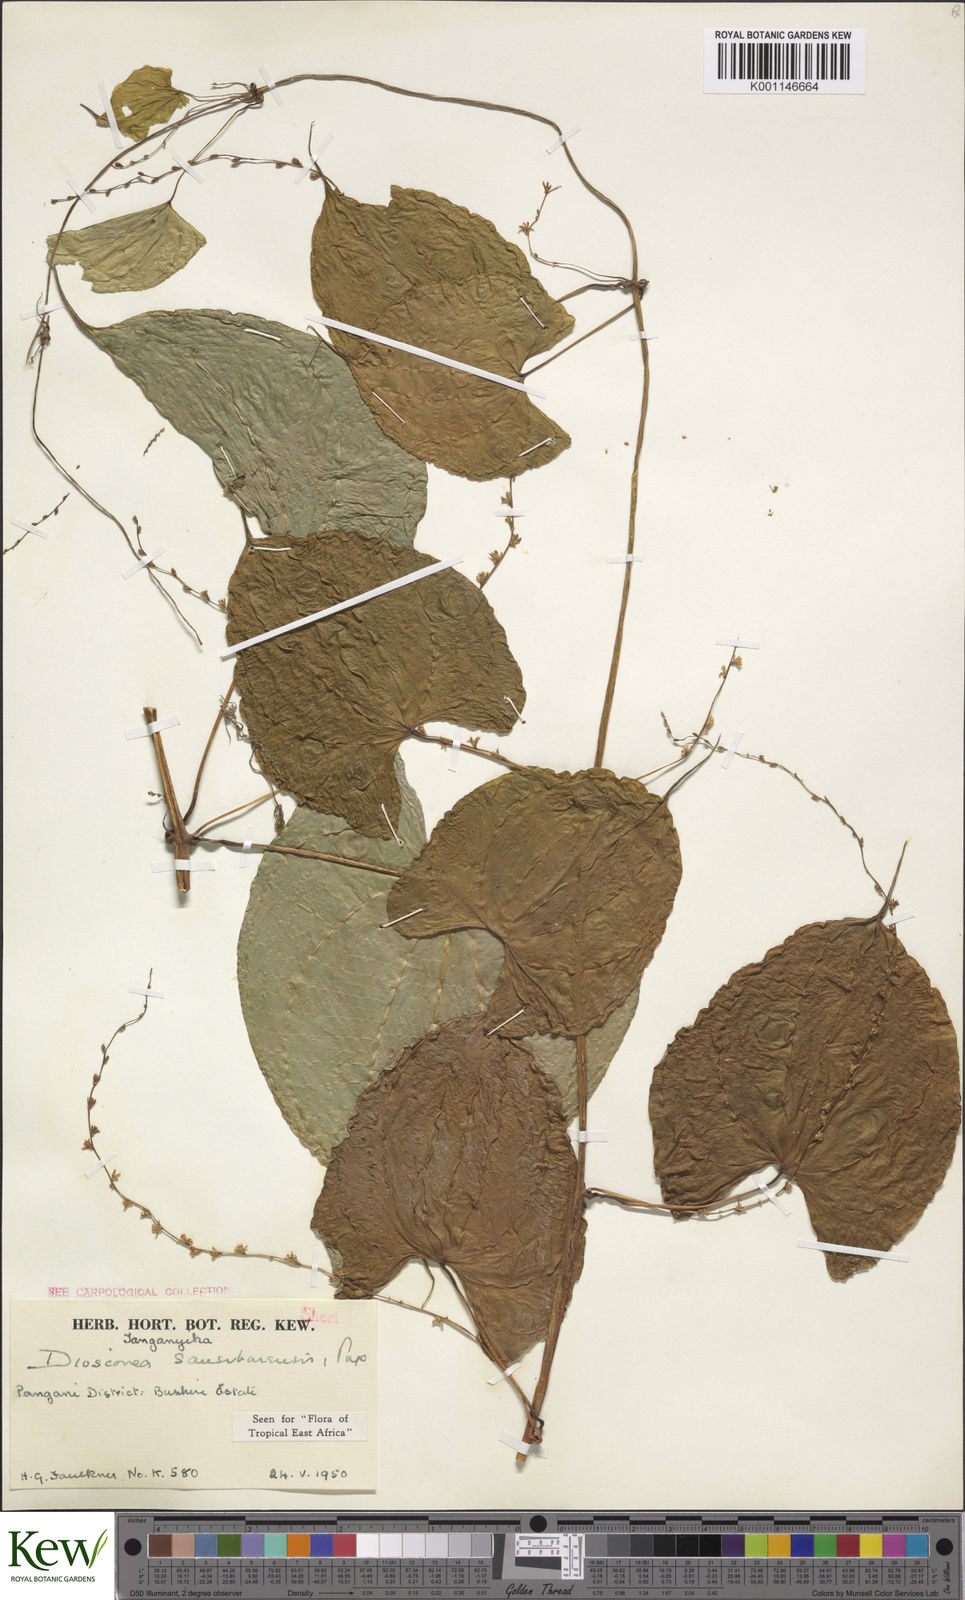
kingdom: Plantae
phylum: Tracheophyta
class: Liliopsida
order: Dioscoreales
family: Dioscoreaceae
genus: Dioscorea
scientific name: Dioscorea sansibarensis
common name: Zanzibar yam
